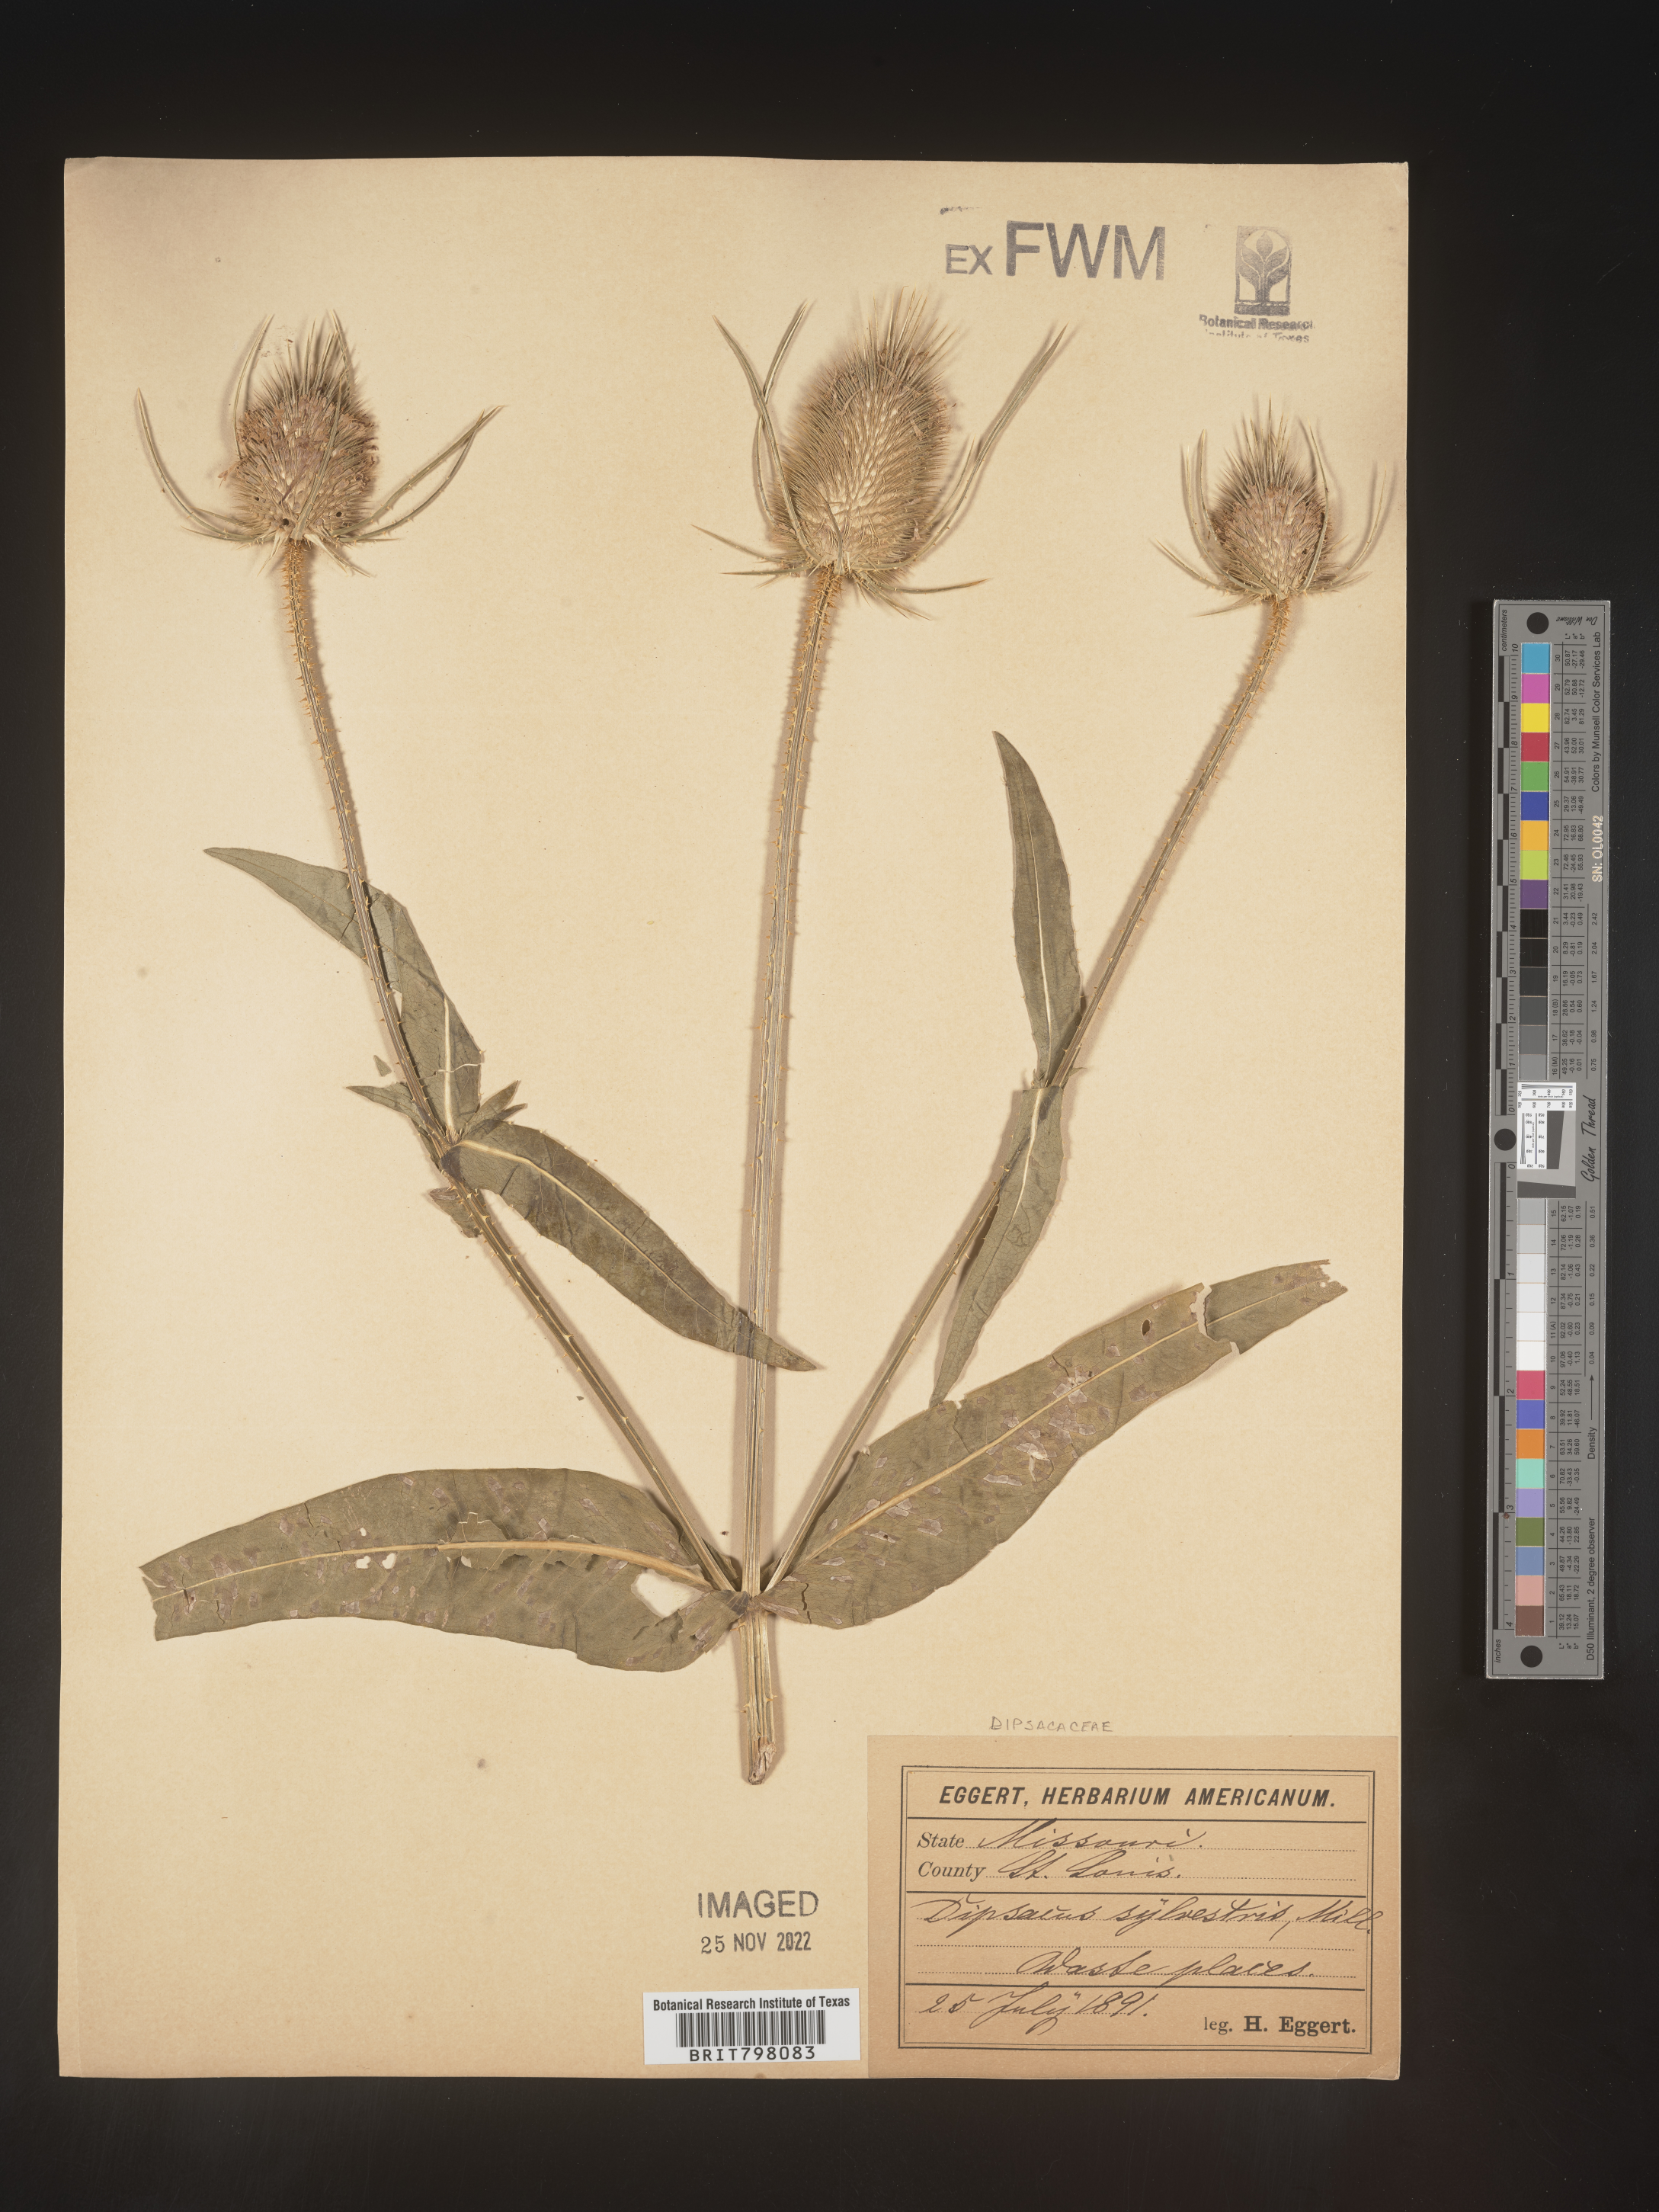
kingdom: Plantae
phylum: Tracheophyta
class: Magnoliopsida
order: Dipsacales
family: Caprifoliaceae
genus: Dipsacus
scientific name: Dipsacus fullonum
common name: Teasel
